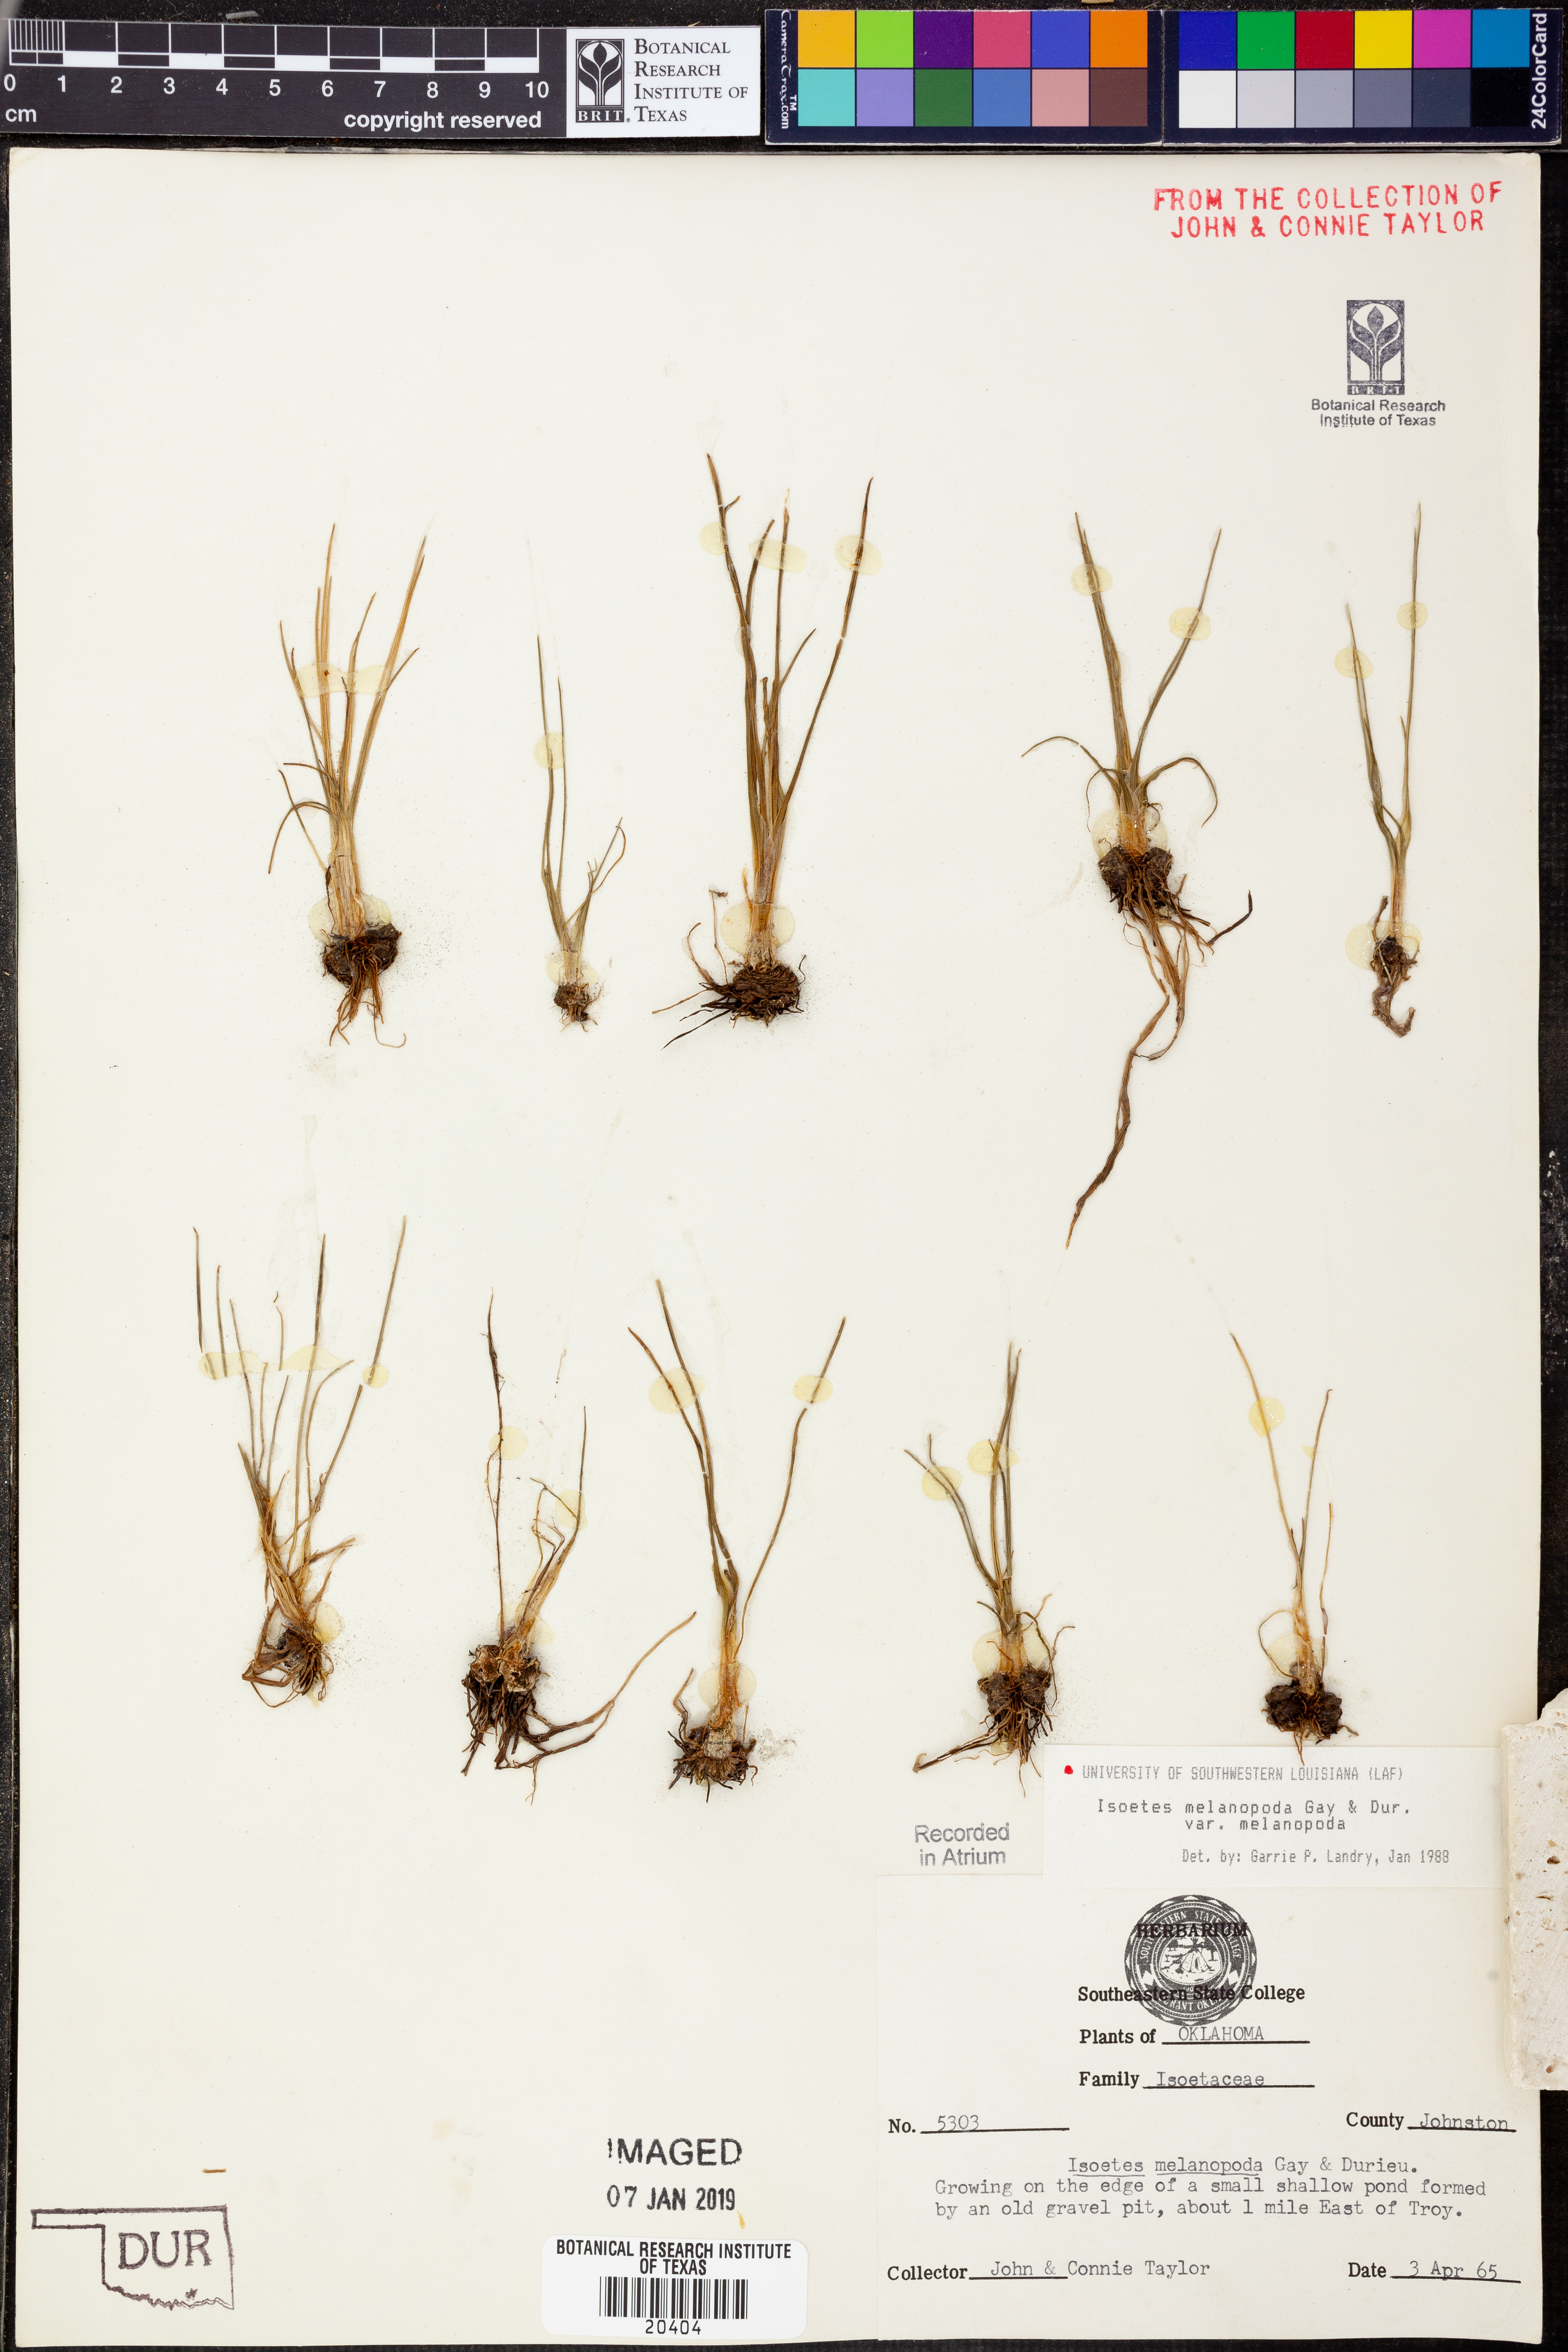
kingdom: Plantae
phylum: Tracheophyta
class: Lycopodiopsida
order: Isoetales
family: Isoetaceae
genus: Isoetes
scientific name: Isoetes melanopoda
